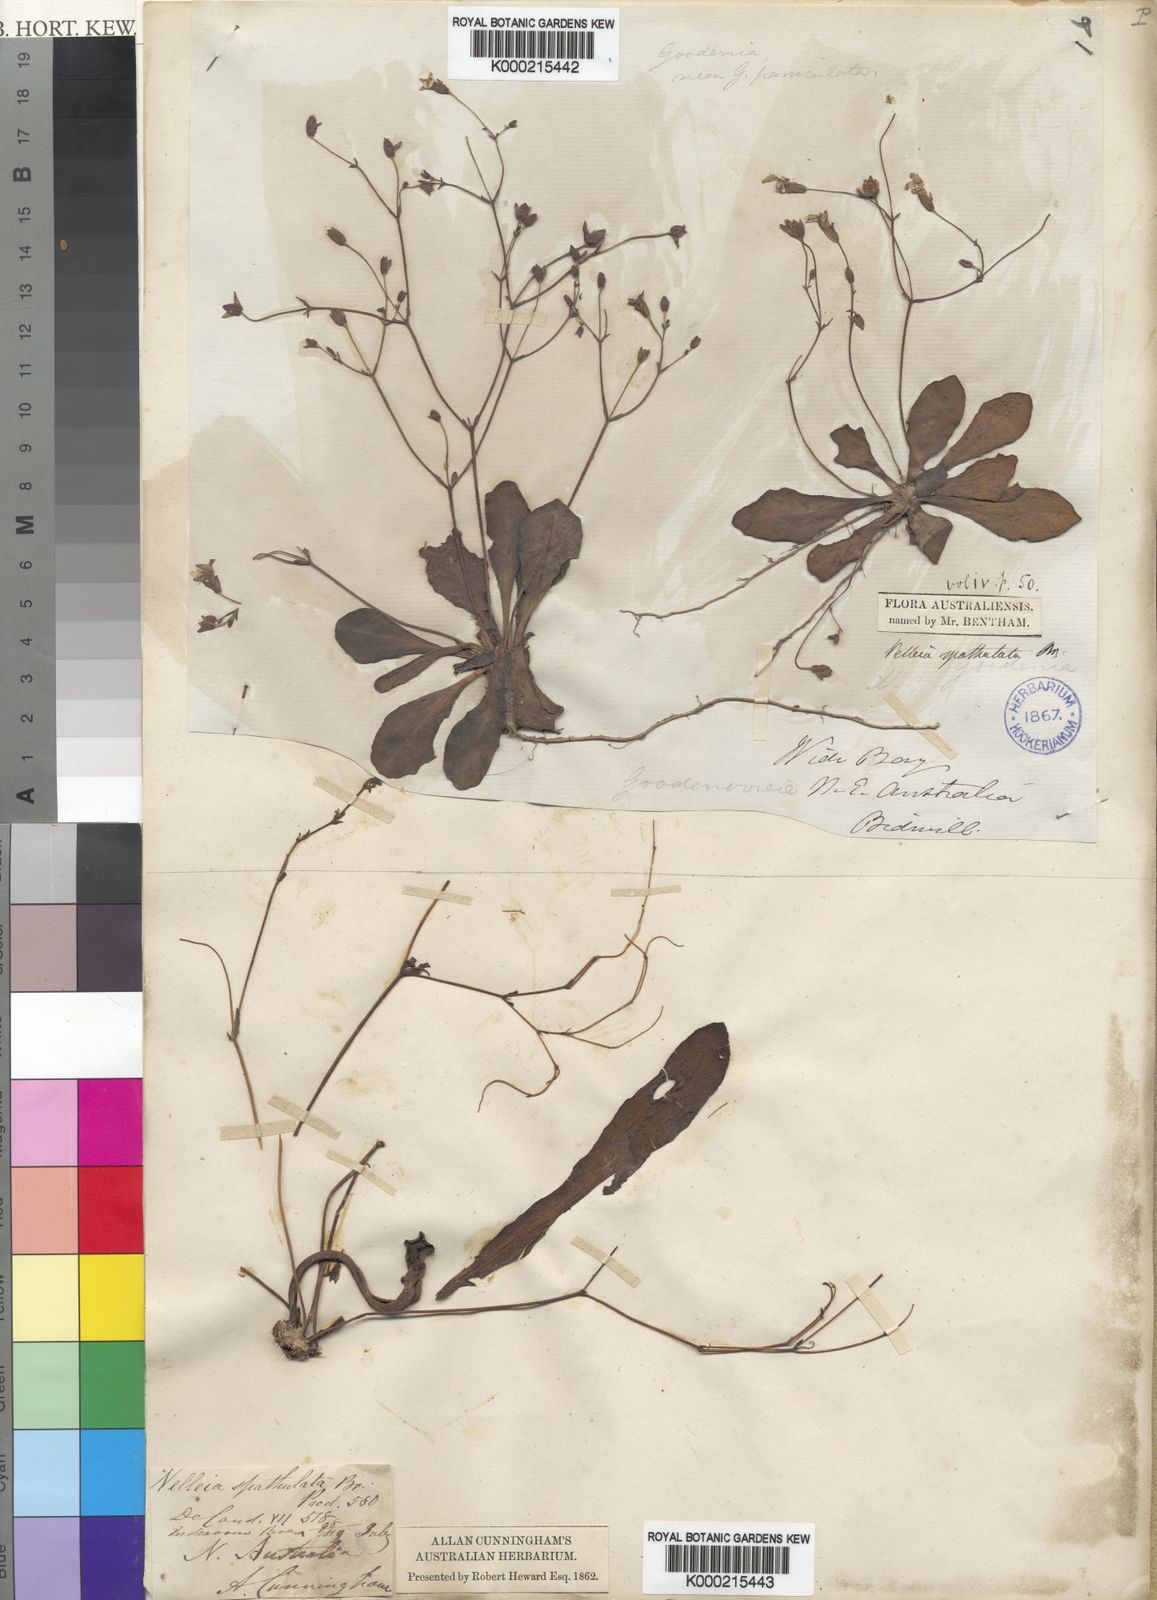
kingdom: Plantae
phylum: Tracheophyta
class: Magnoliopsida
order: Asterales
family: Goodeniaceae
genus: Goodenia
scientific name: Goodenia mystrophylla
